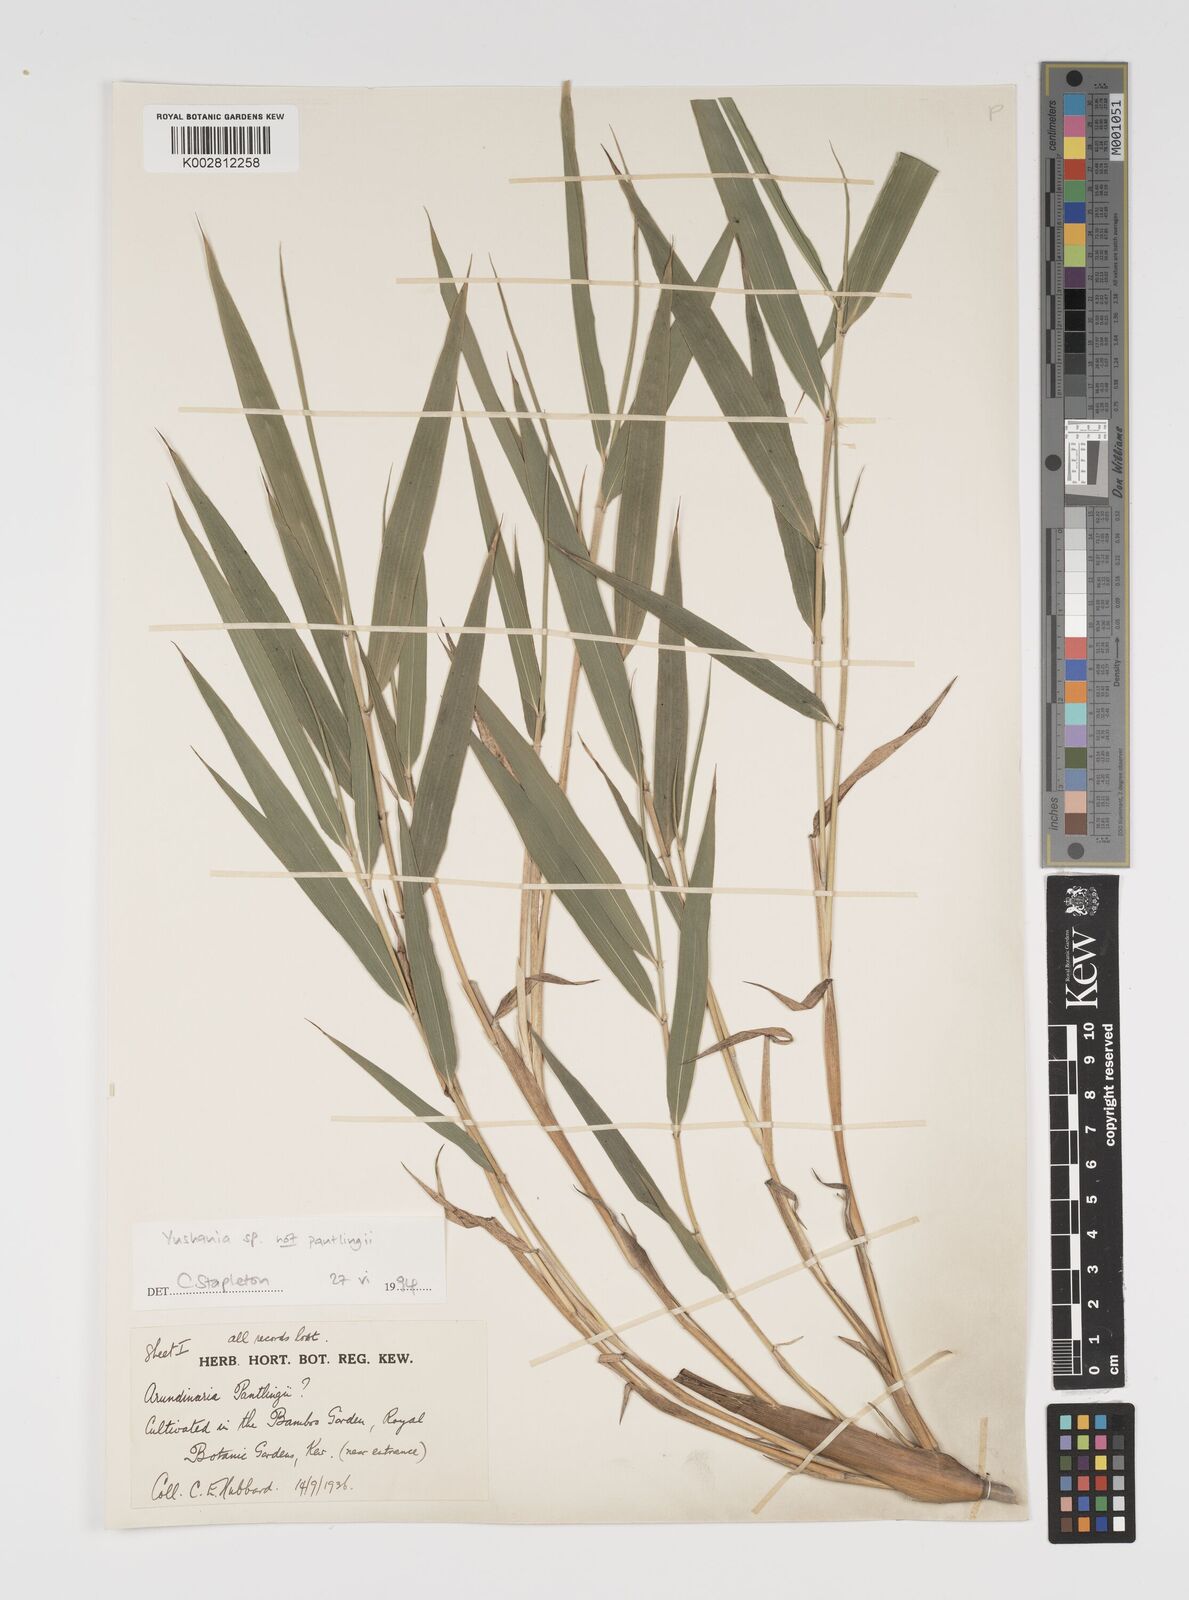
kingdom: Plantae
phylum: Tracheophyta
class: Liliopsida
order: Poales
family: Poaceae
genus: Yushania
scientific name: Yushania
